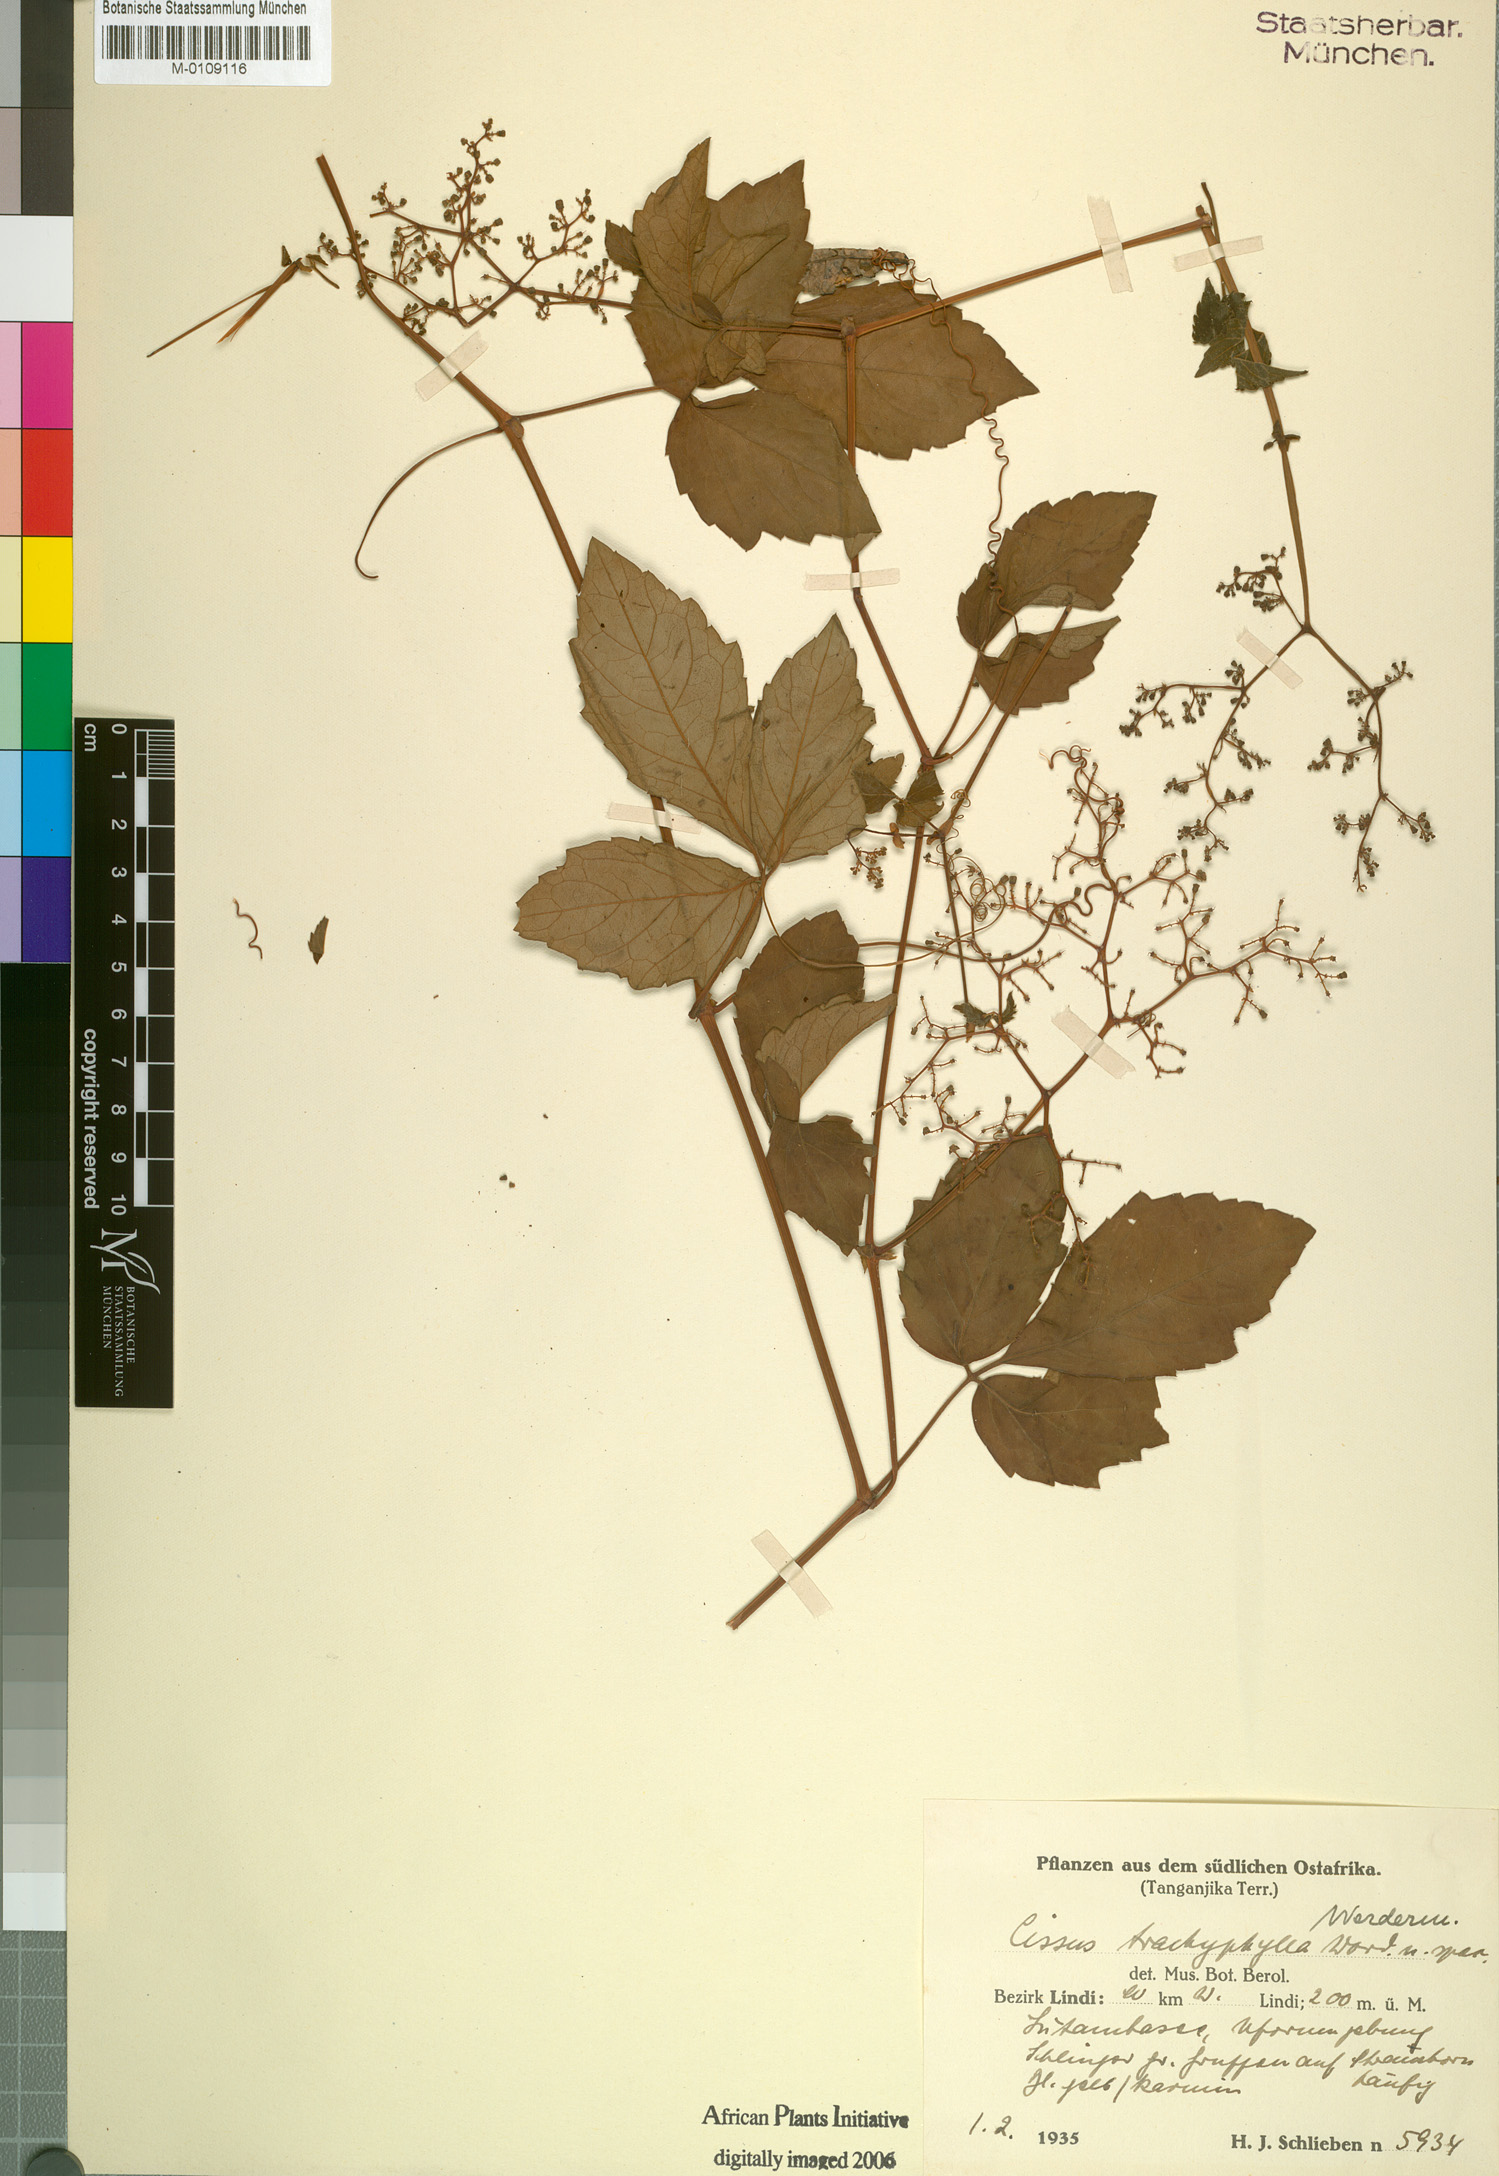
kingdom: Plantae
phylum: Tracheophyta
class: Magnoliopsida
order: Vitales
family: Vitaceae
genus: Cyphostemma
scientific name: Cyphostemma trachyphyllum
